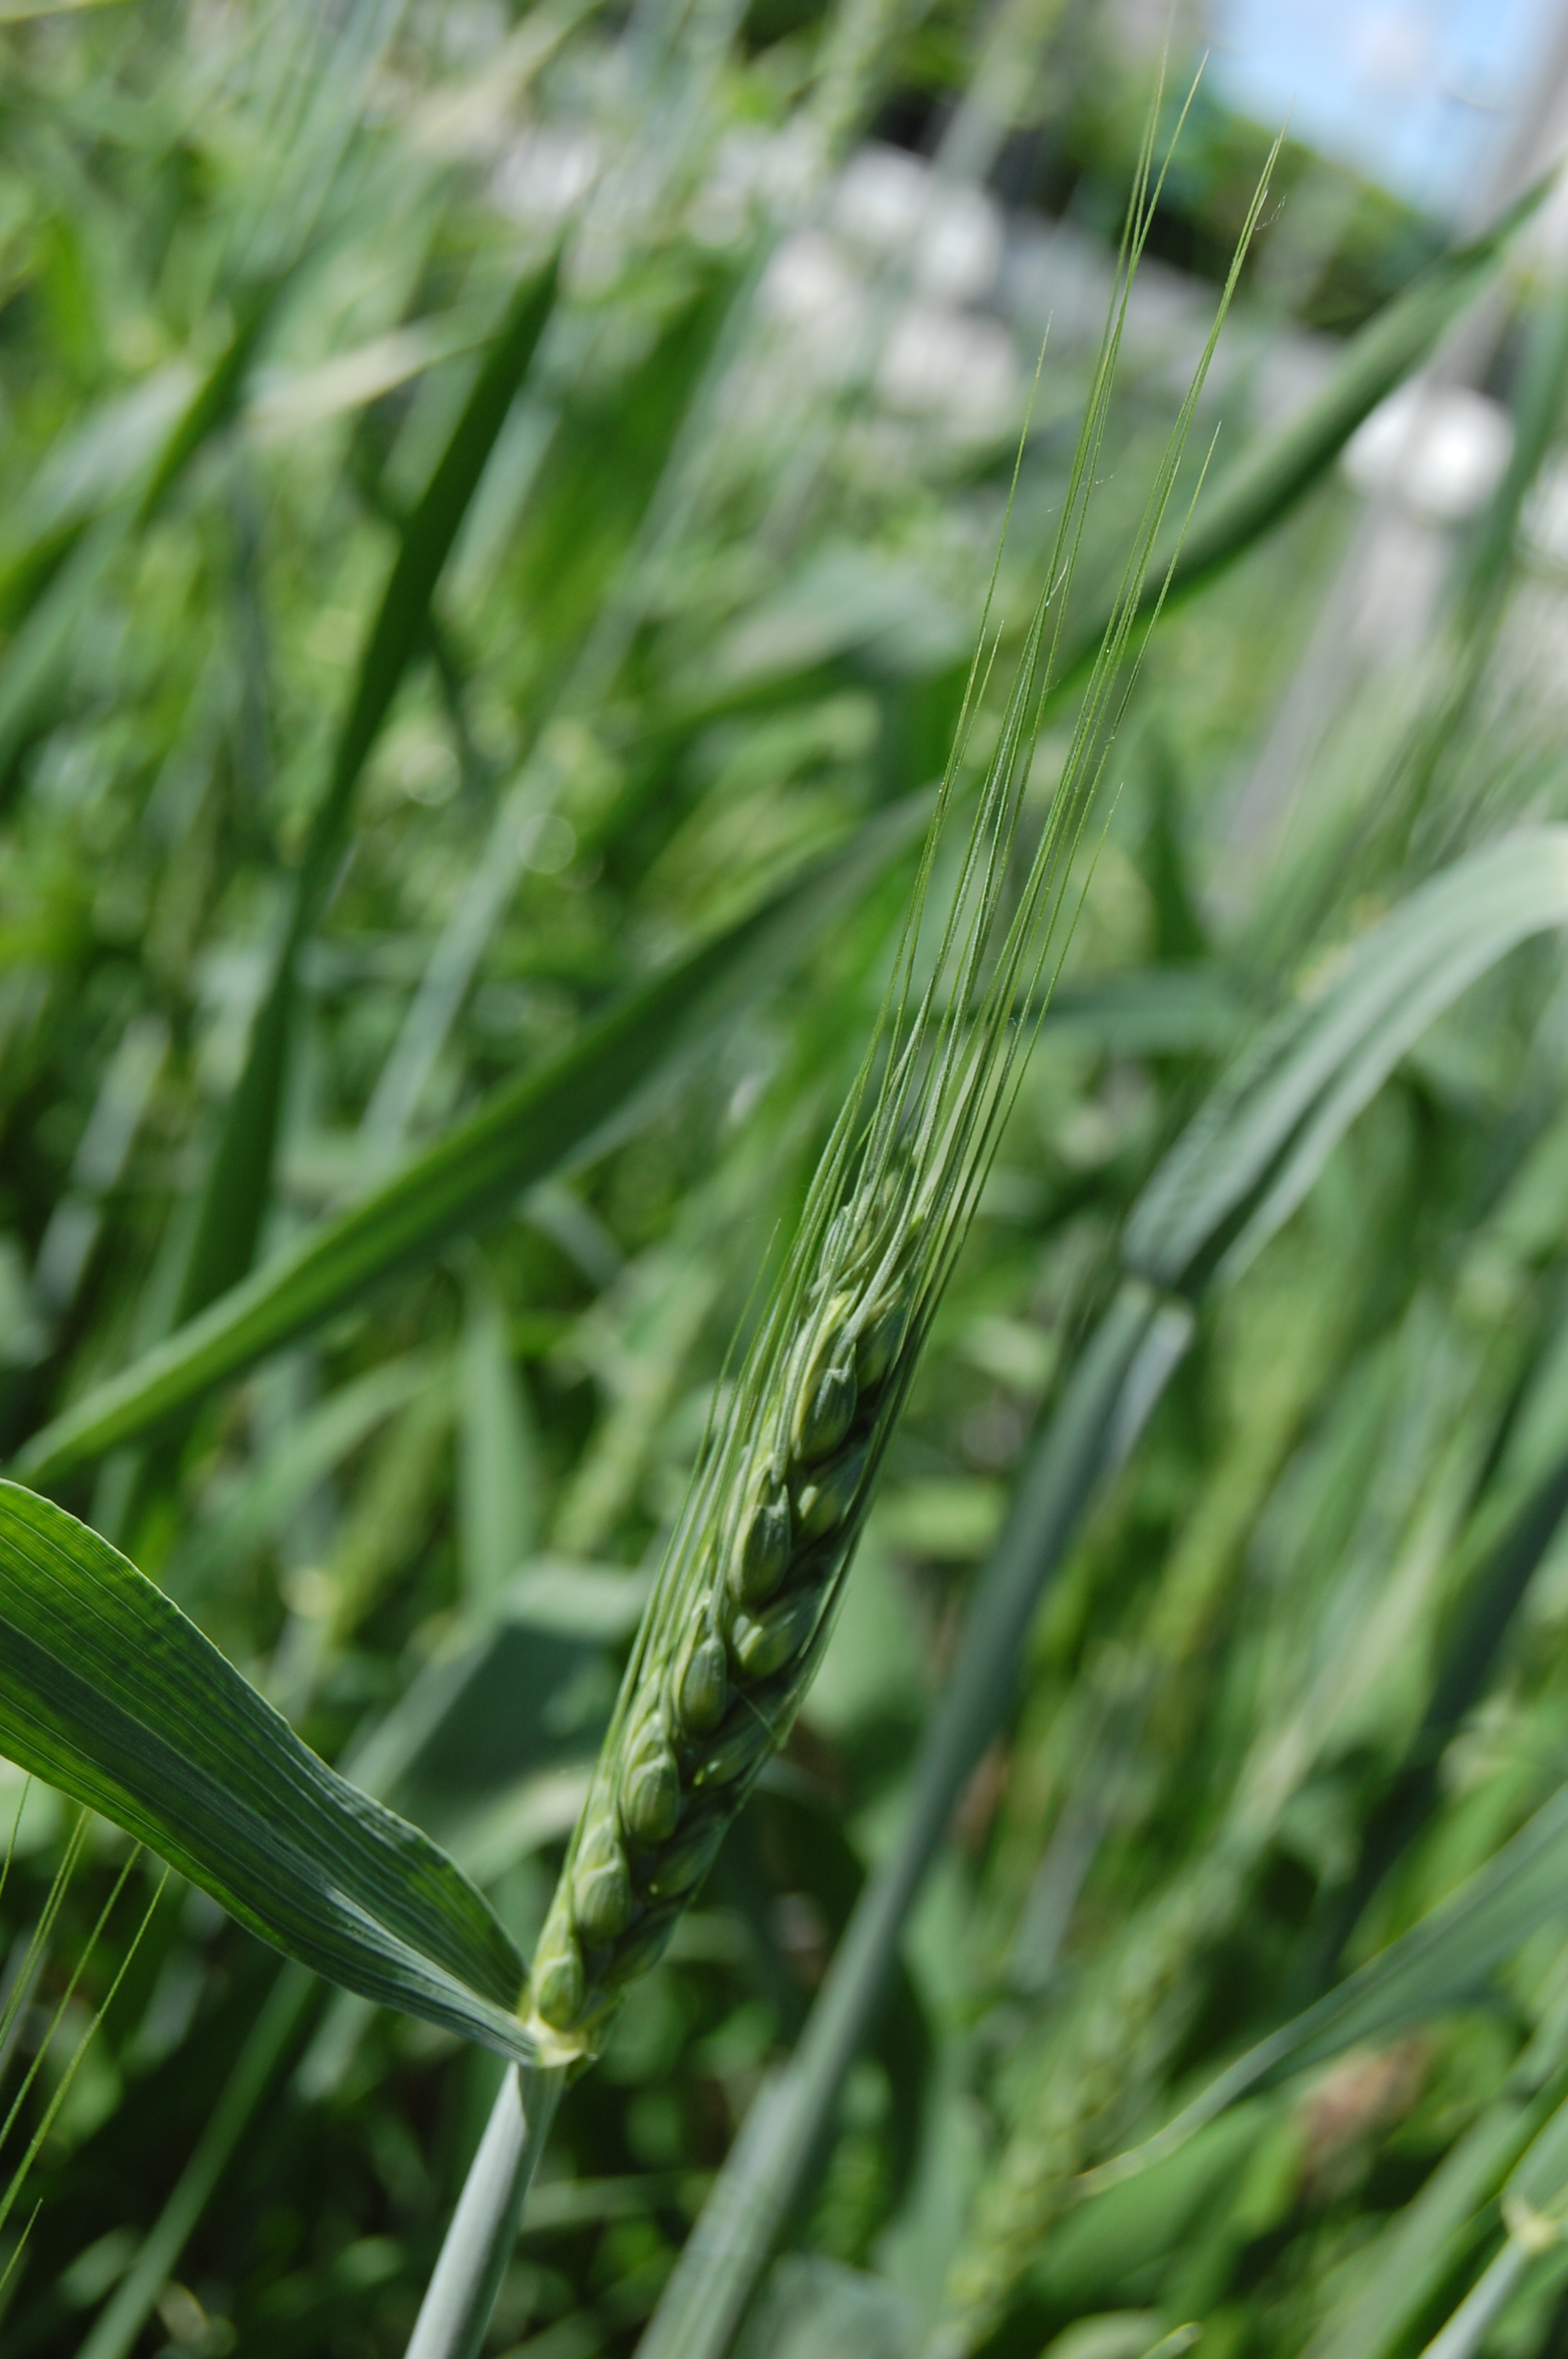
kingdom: Plantae
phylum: Tracheophyta
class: Liliopsida
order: Poales
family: Poaceae
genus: Triticum
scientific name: Triticum aestivum
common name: Common wheat
